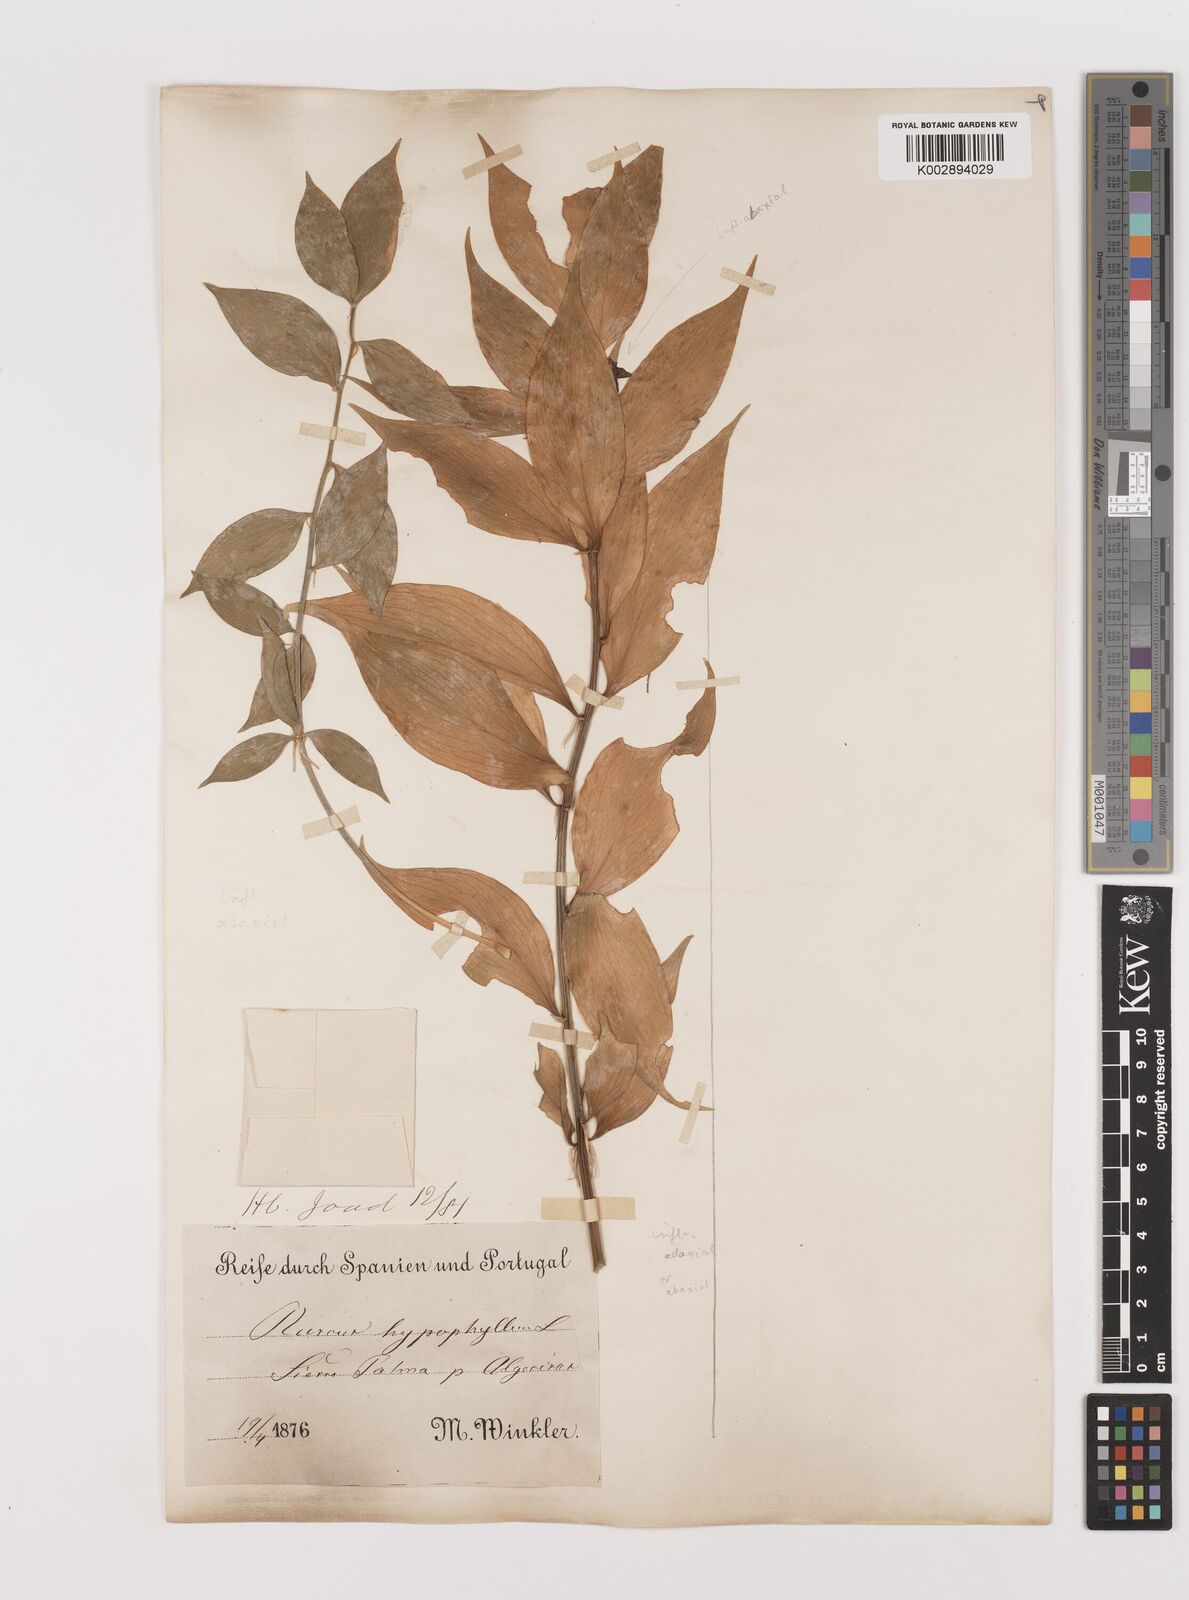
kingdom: Plantae
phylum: Tracheophyta
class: Liliopsida
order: Asparagales
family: Asparagaceae
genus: Ruscus
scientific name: Ruscus hypophyllum
